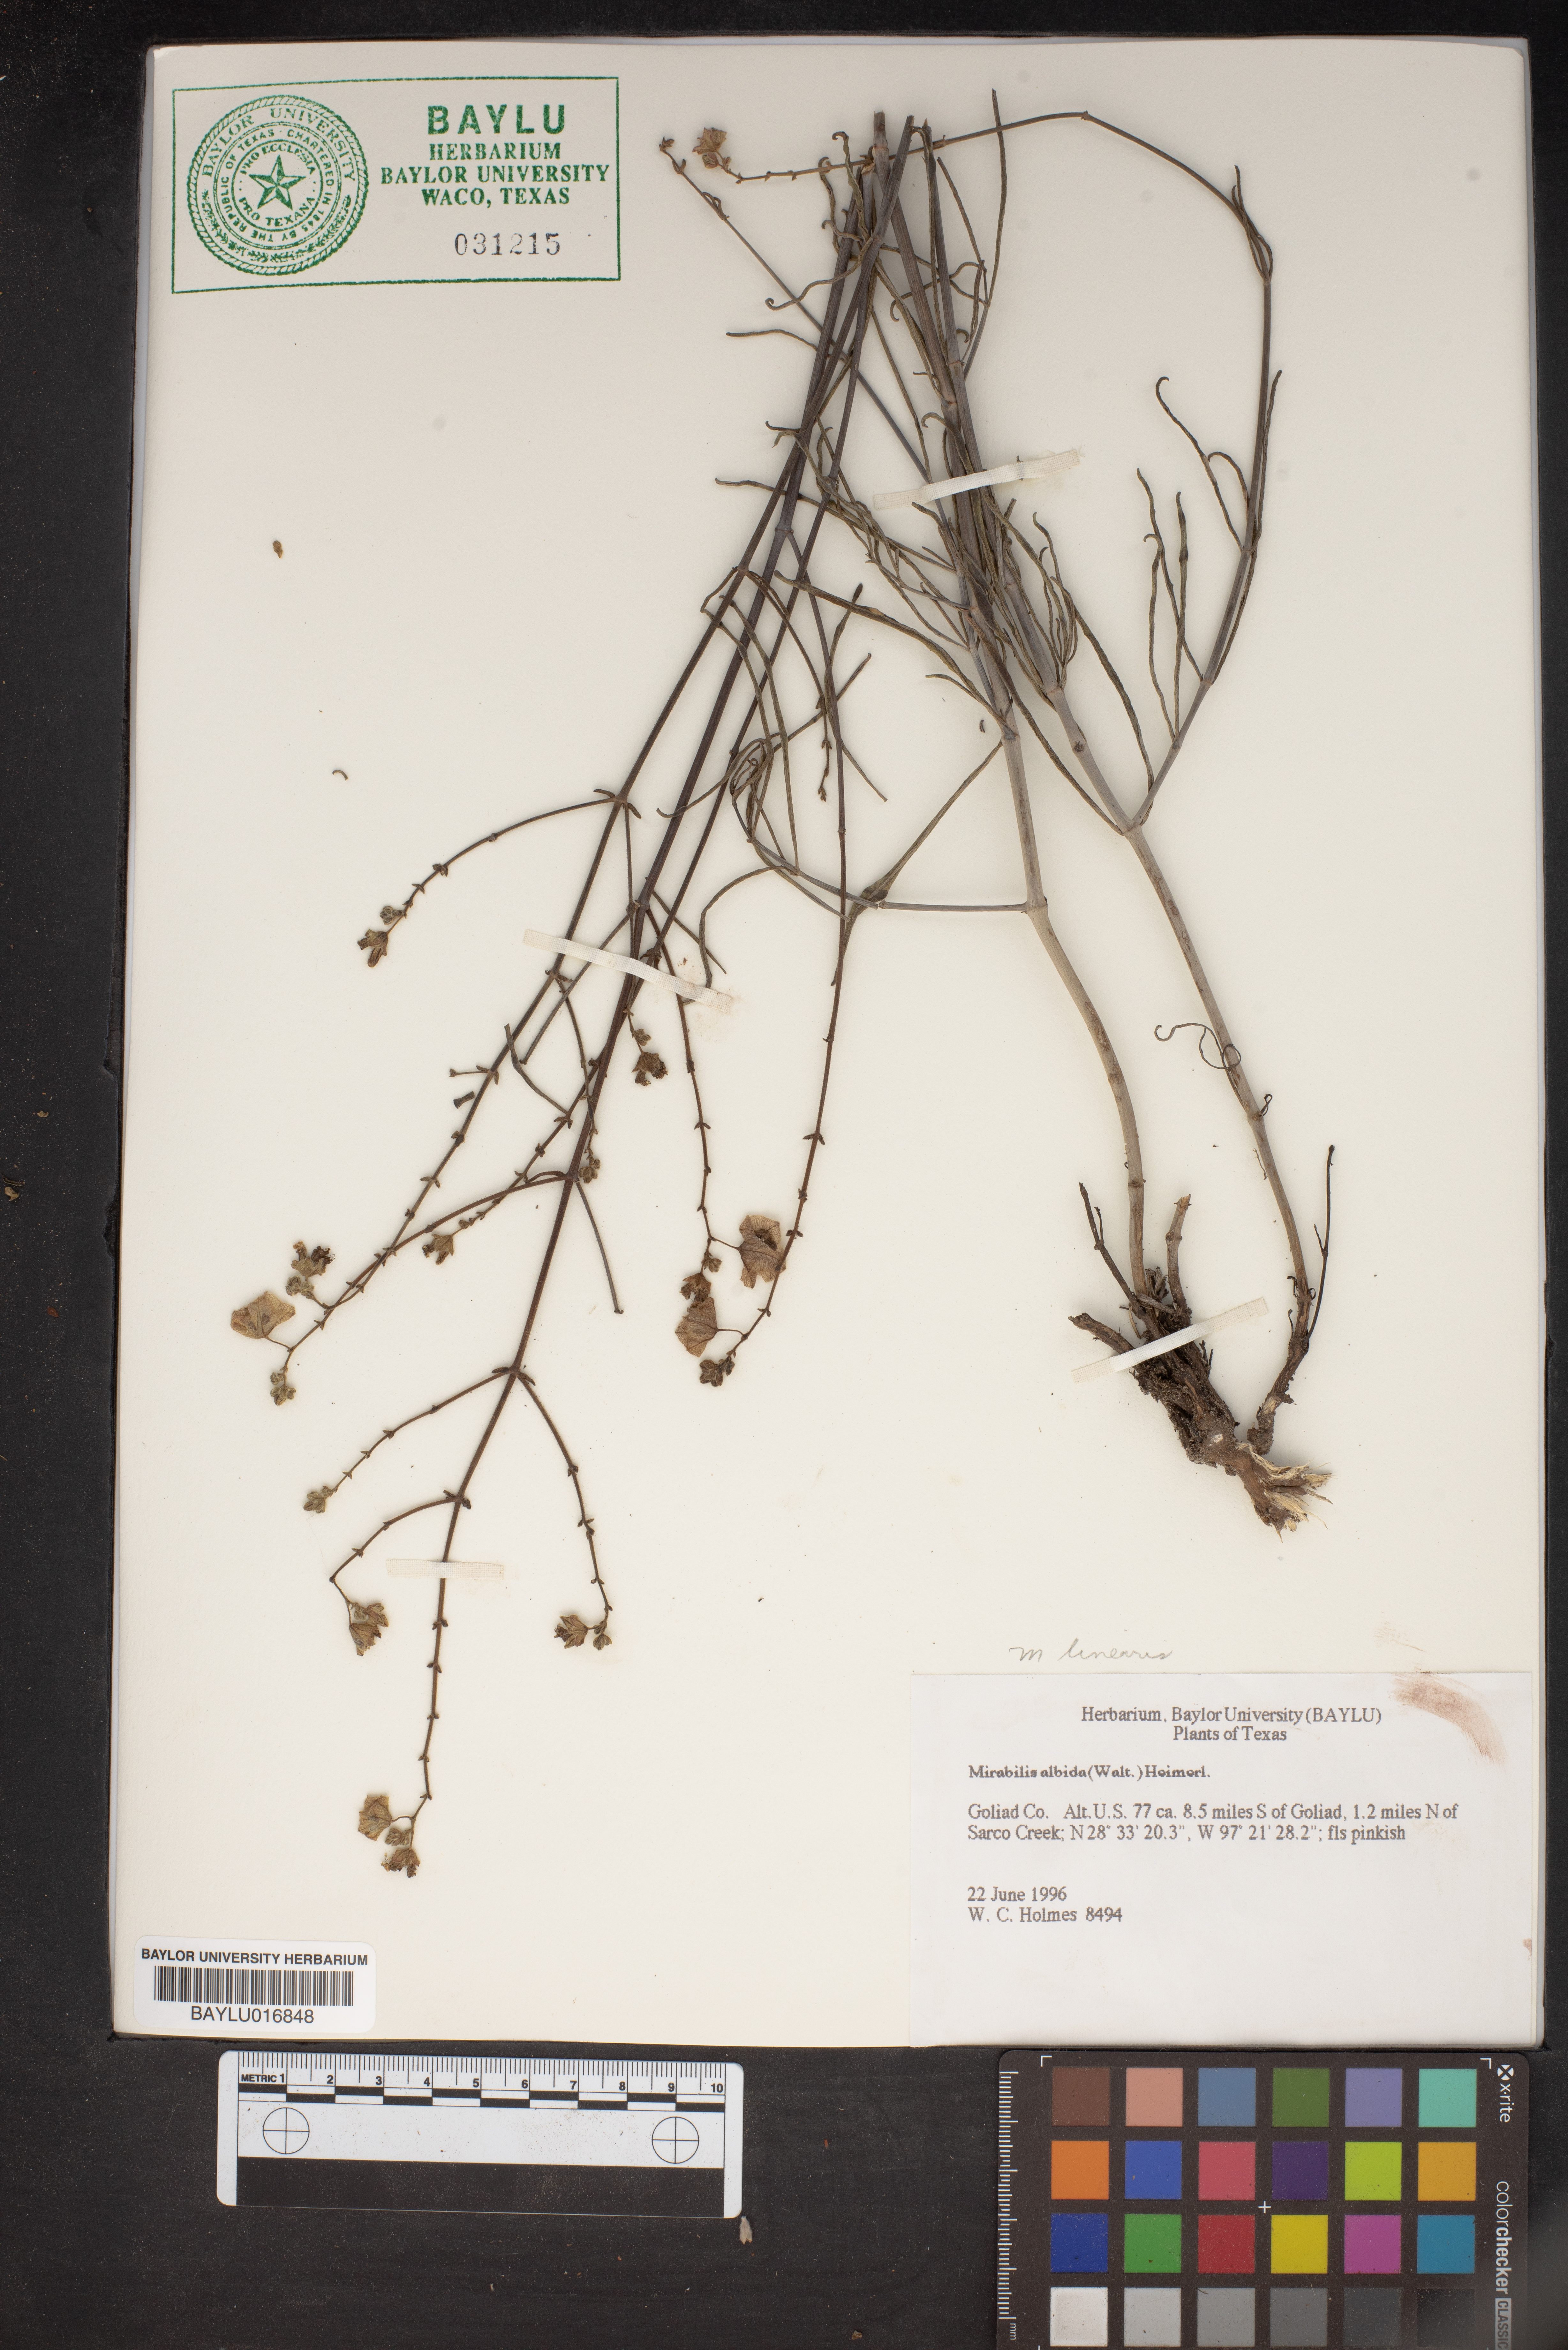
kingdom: Plantae
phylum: Tracheophyta
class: Magnoliopsida
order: Caryophyllales
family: Nyctaginaceae
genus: Mirabilis
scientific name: Mirabilis albida
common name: Hairy four-o'clock
